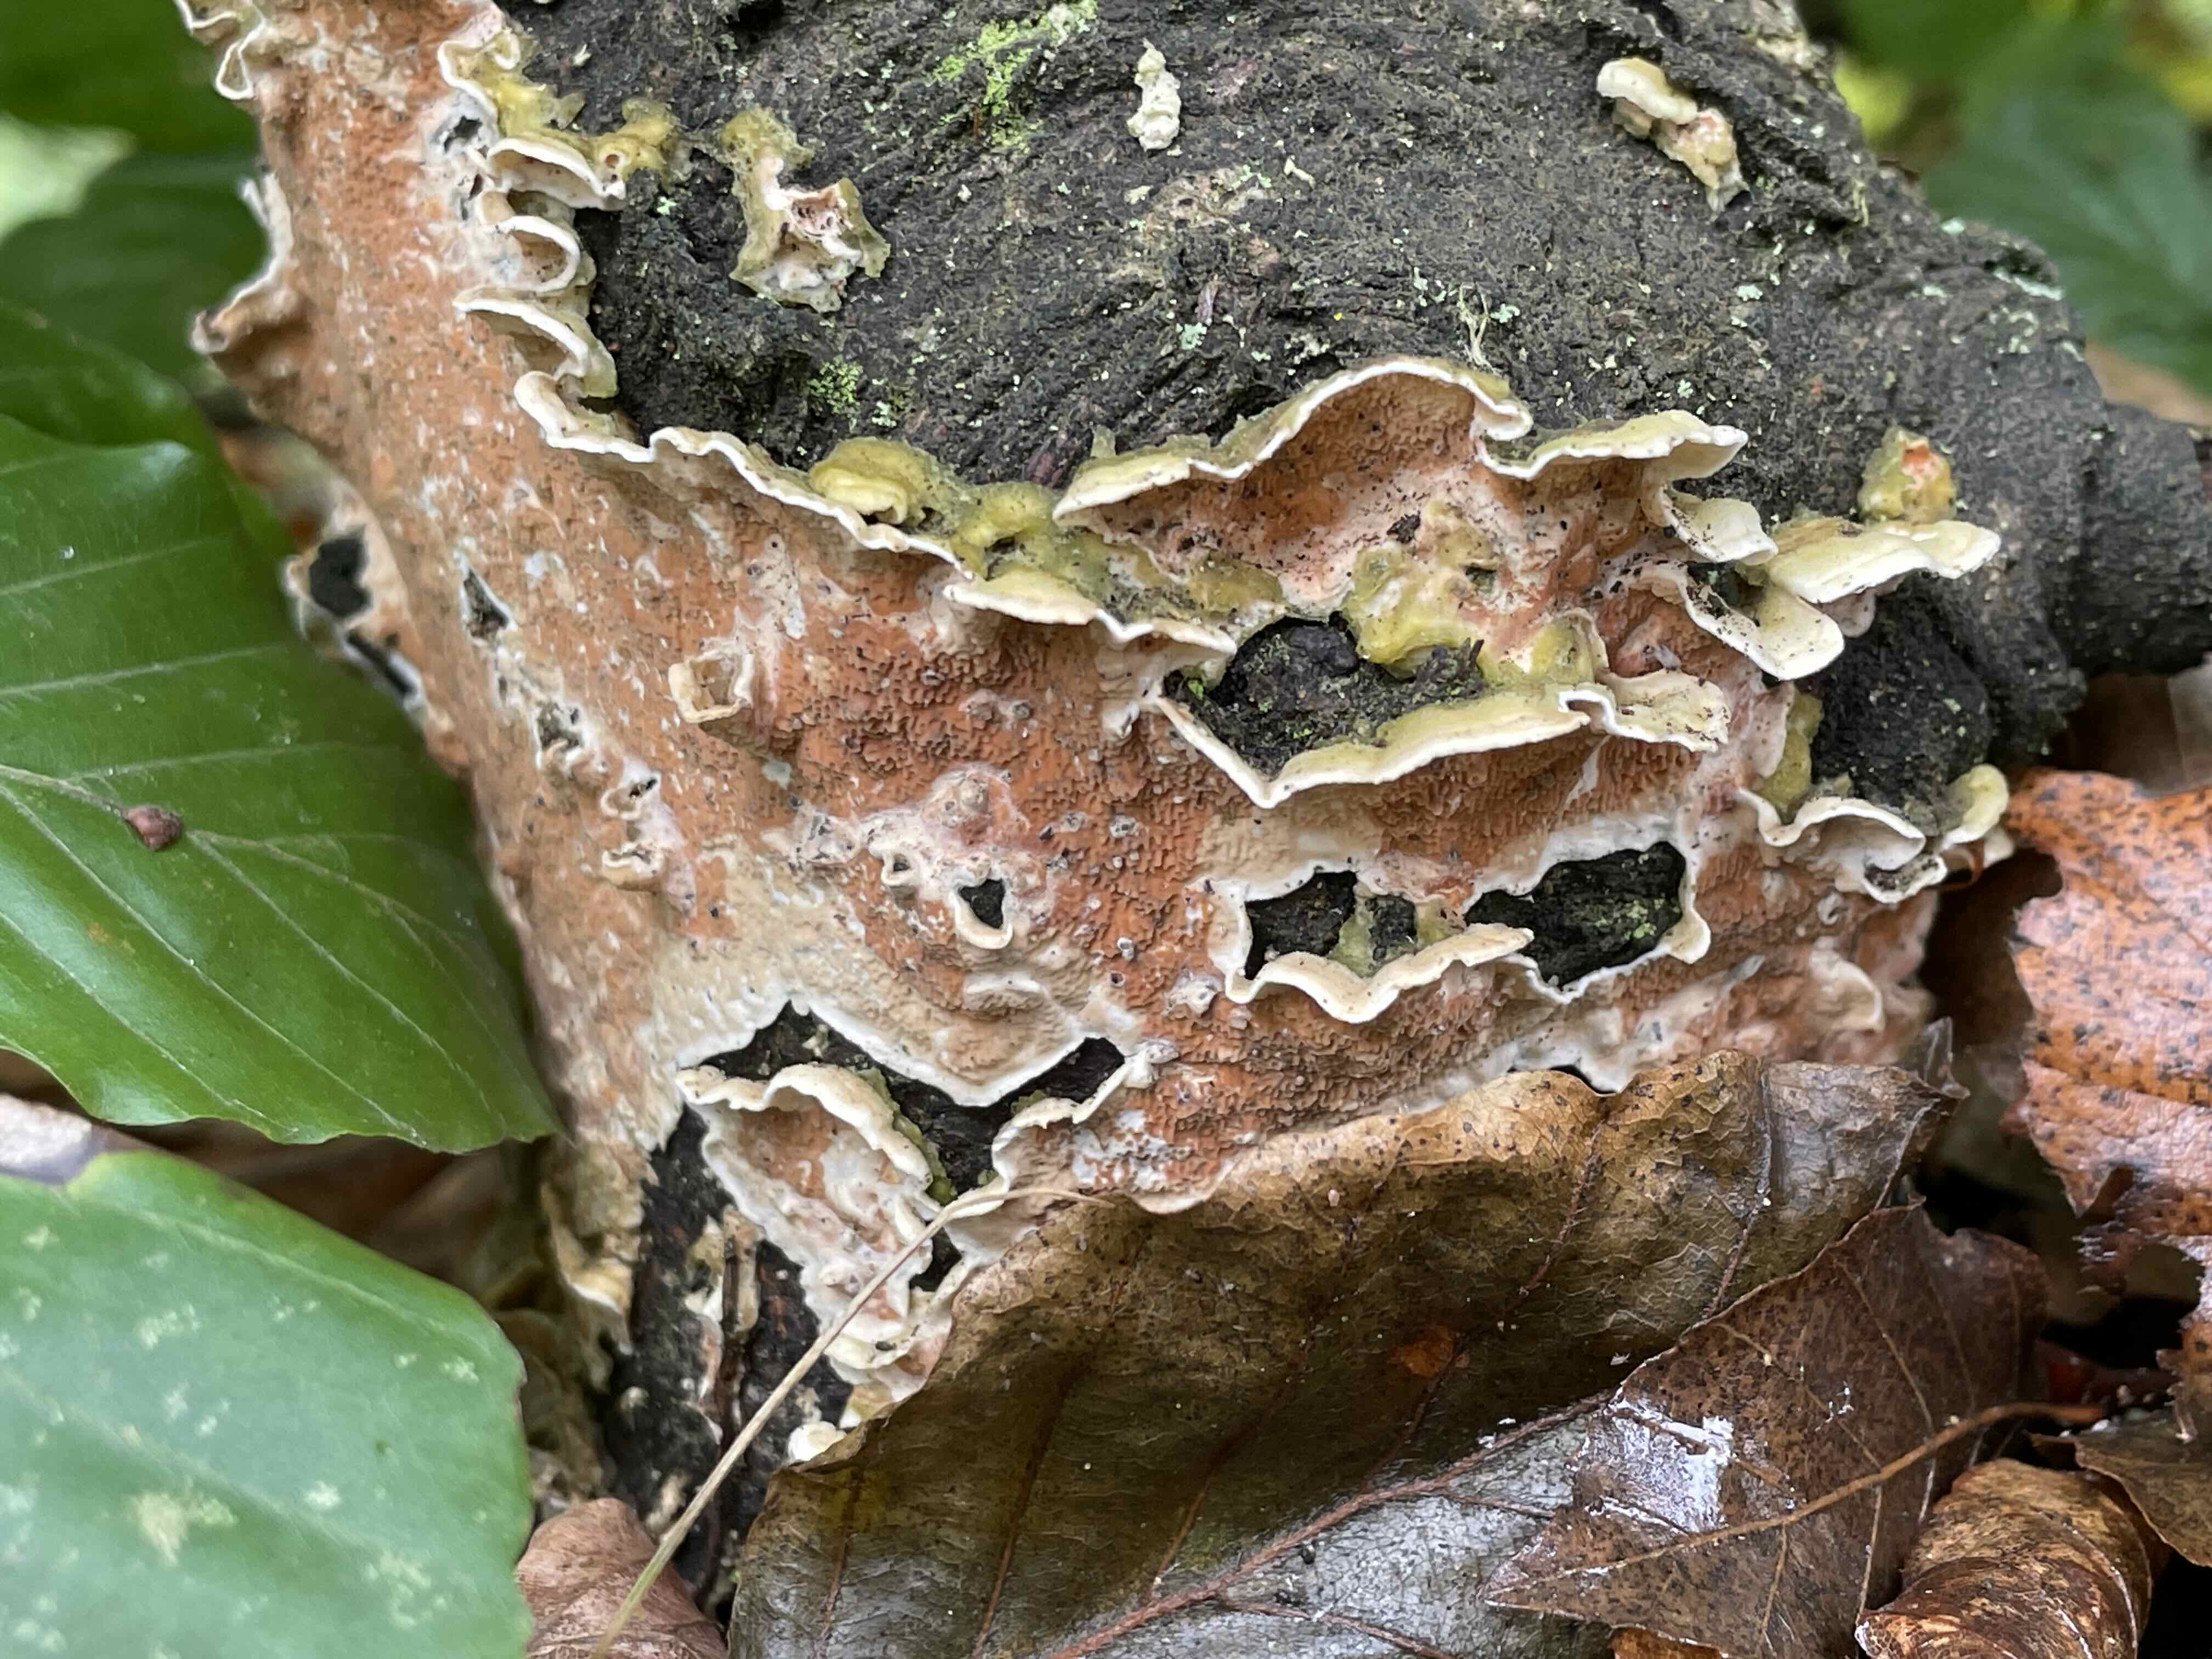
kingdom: Fungi
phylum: Basidiomycota
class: Agaricomycetes
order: Polyporales
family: Irpicaceae
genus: Byssomerulius
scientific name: Byssomerulius corium
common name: læder-åresvamp
